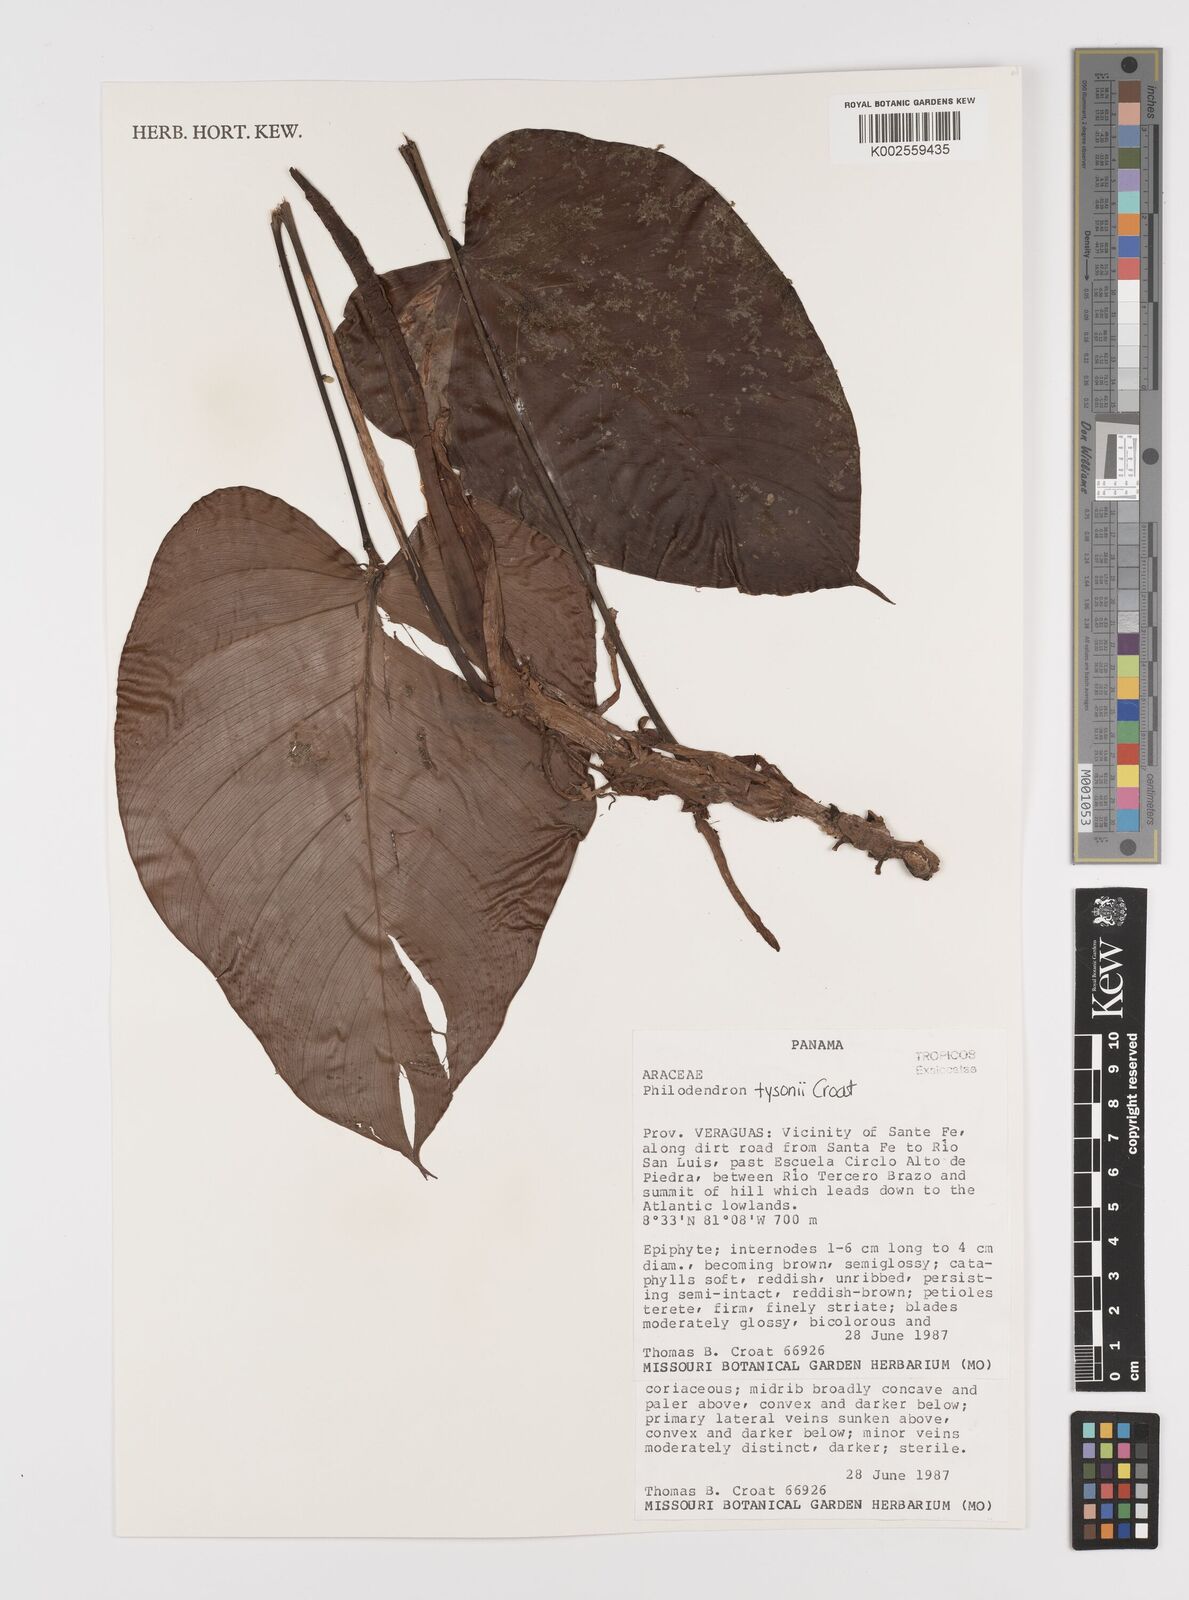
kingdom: Plantae
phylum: Tracheophyta
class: Liliopsida
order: Alismatales
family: Araceae
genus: Philodendron
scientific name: Philodendron tysonii
